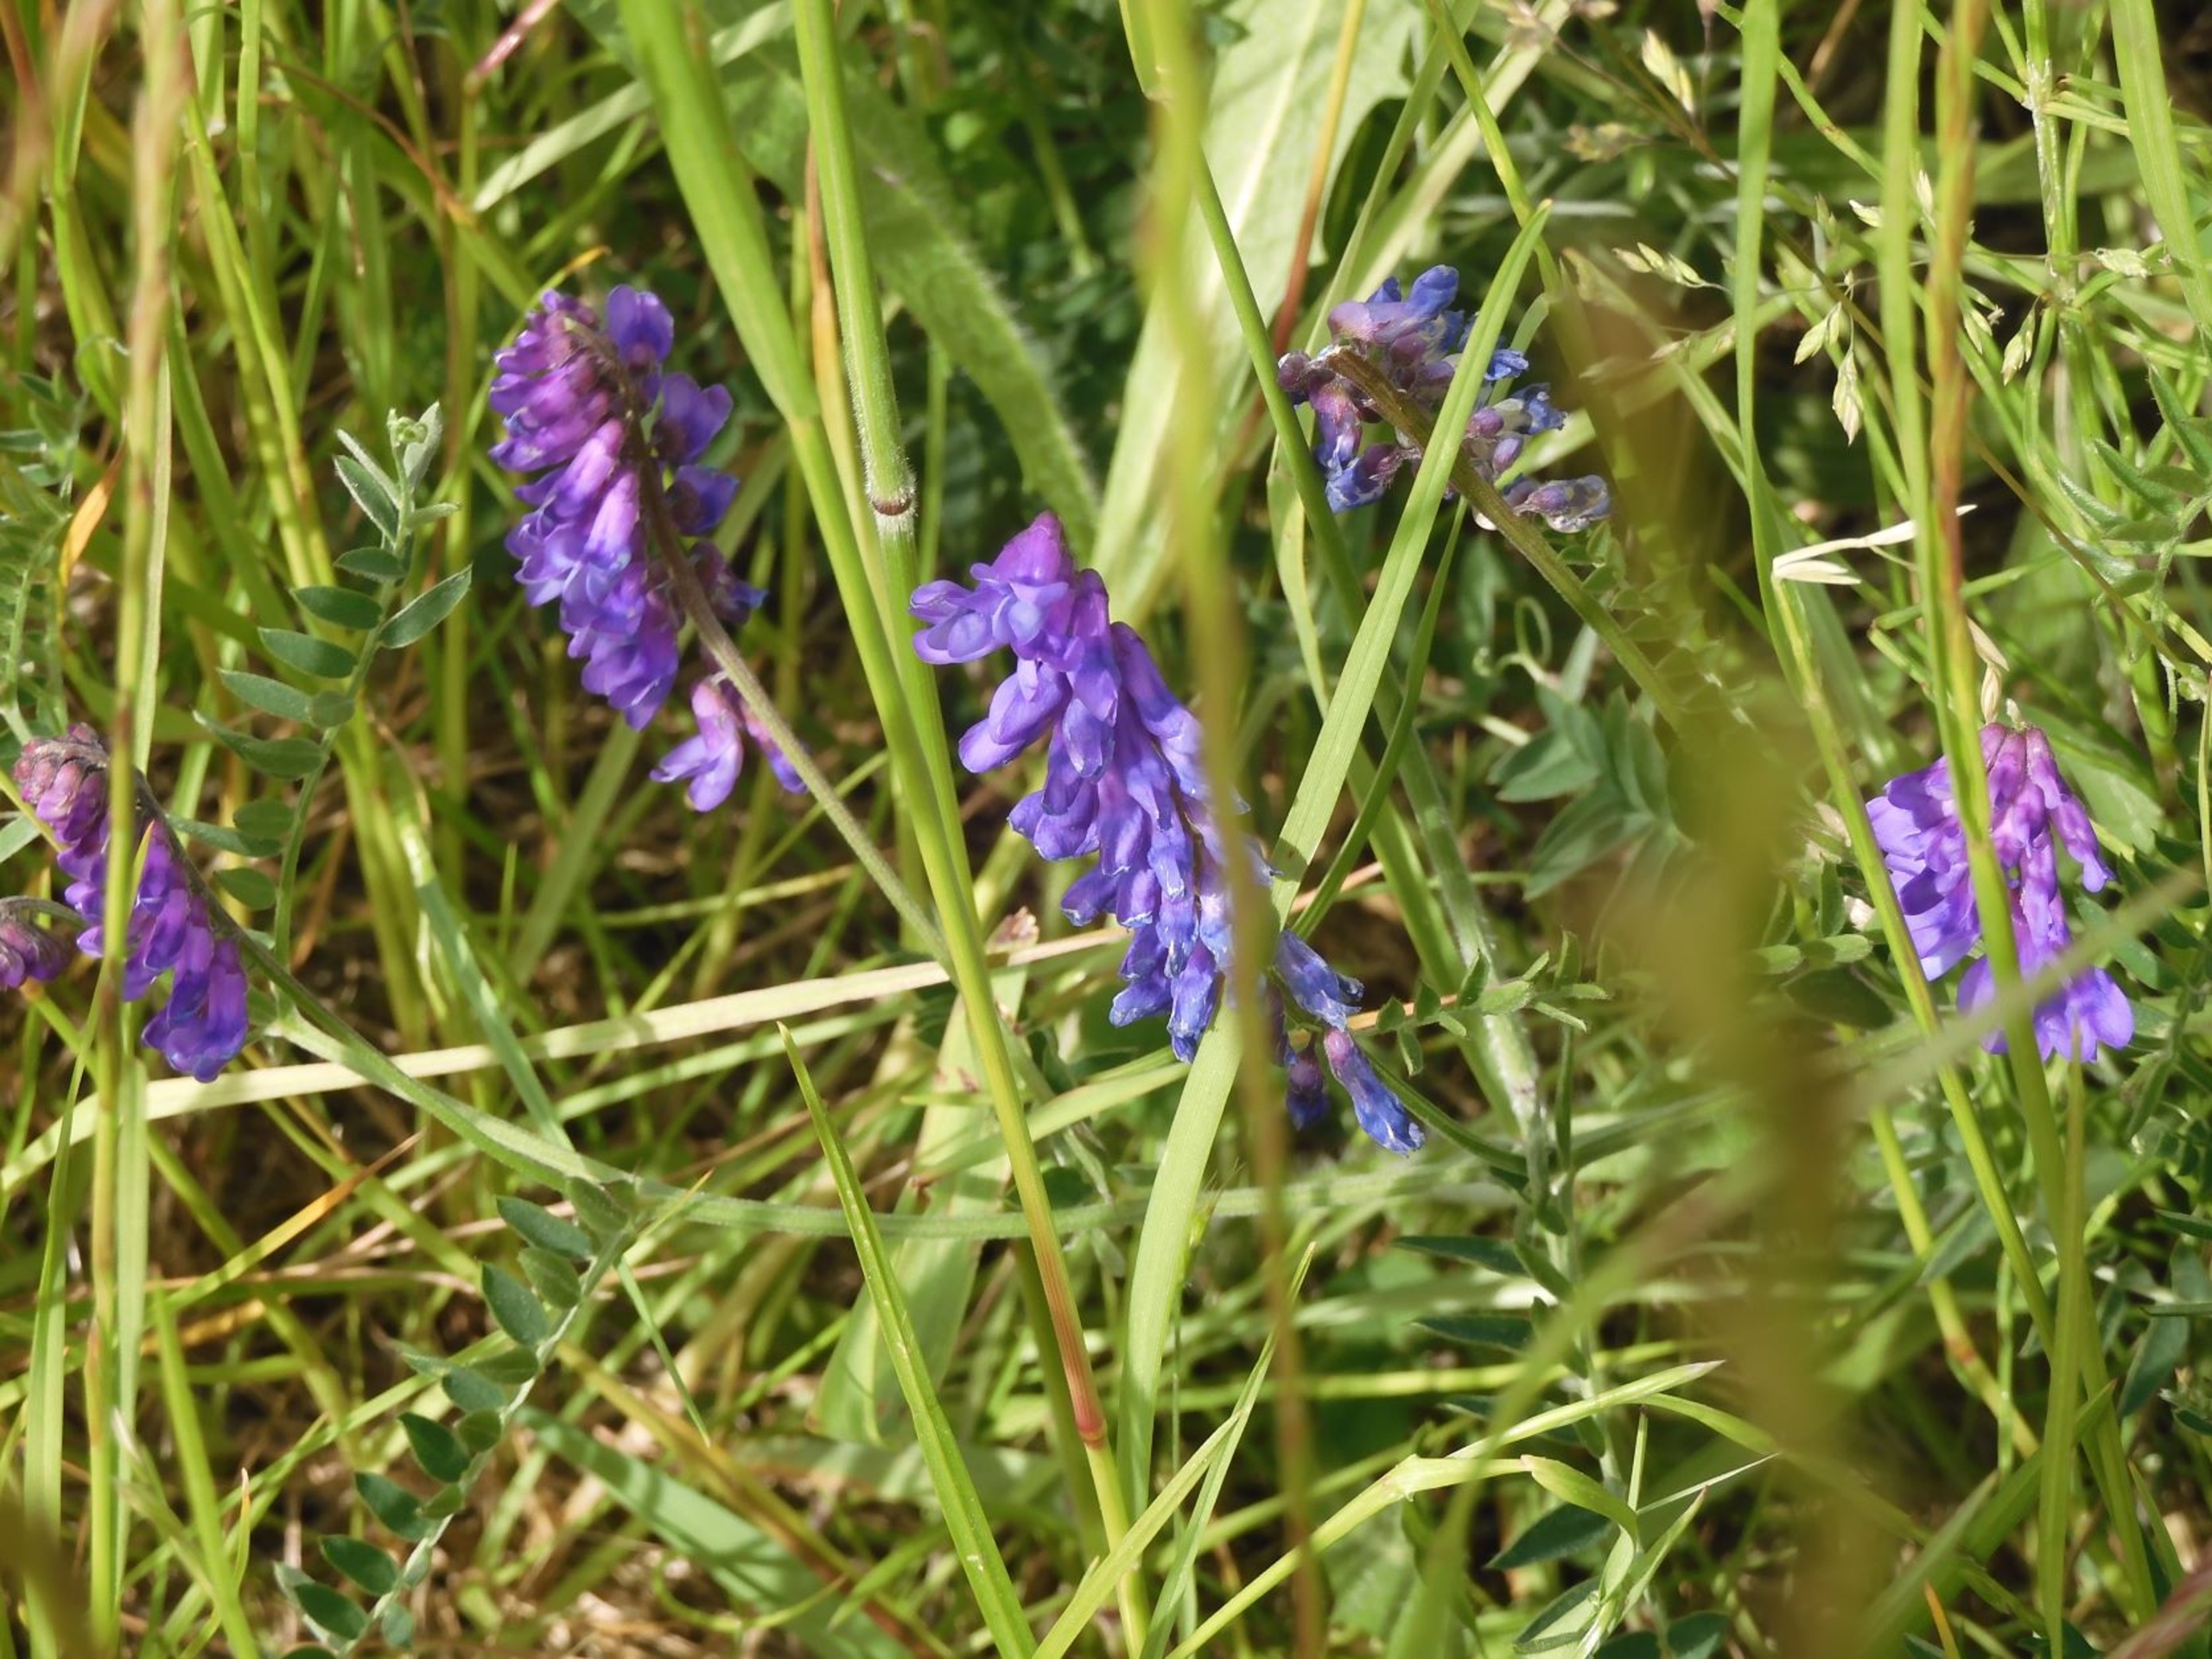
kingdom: Plantae
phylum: Tracheophyta
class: Magnoliopsida
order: Fabales
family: Fabaceae
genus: Vicia
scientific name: Vicia cracca
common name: Muse-vikke
